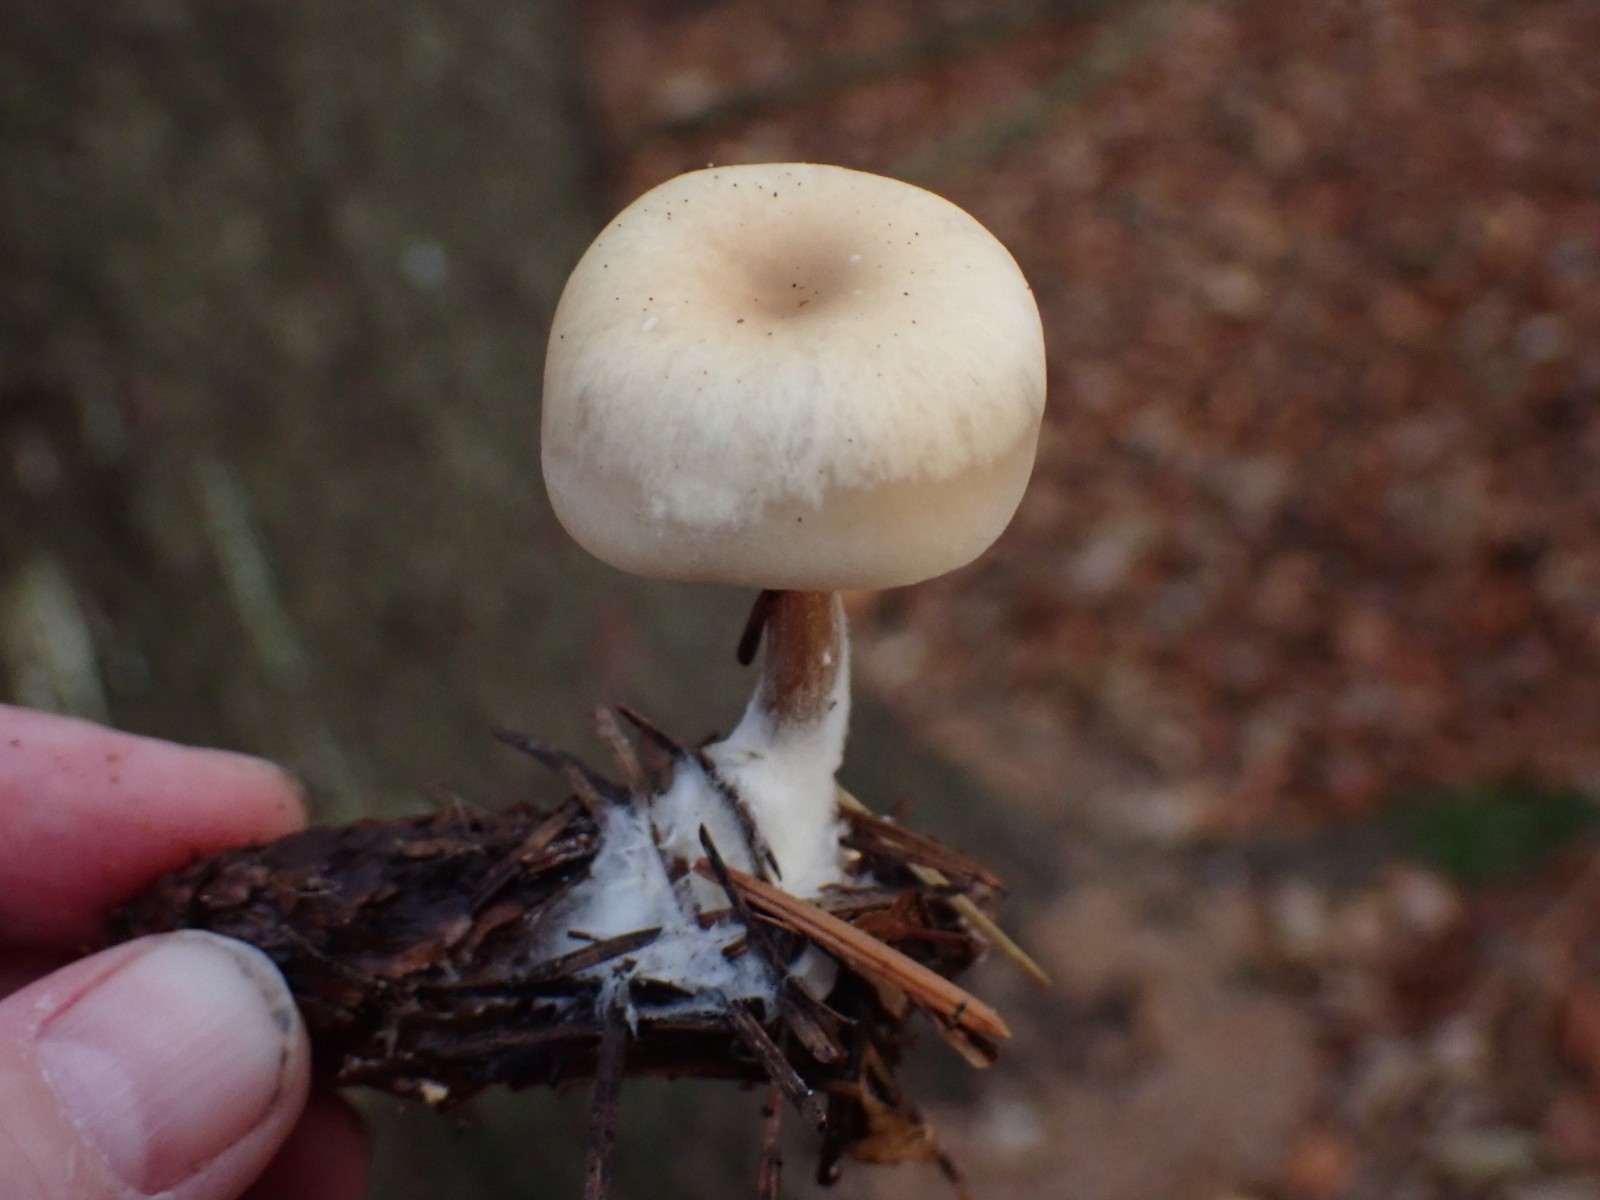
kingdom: Fungi
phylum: Basidiomycota
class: Agaricomycetes
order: Agaricales
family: Tricholomataceae
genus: Clitocybe
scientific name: Clitocybe
